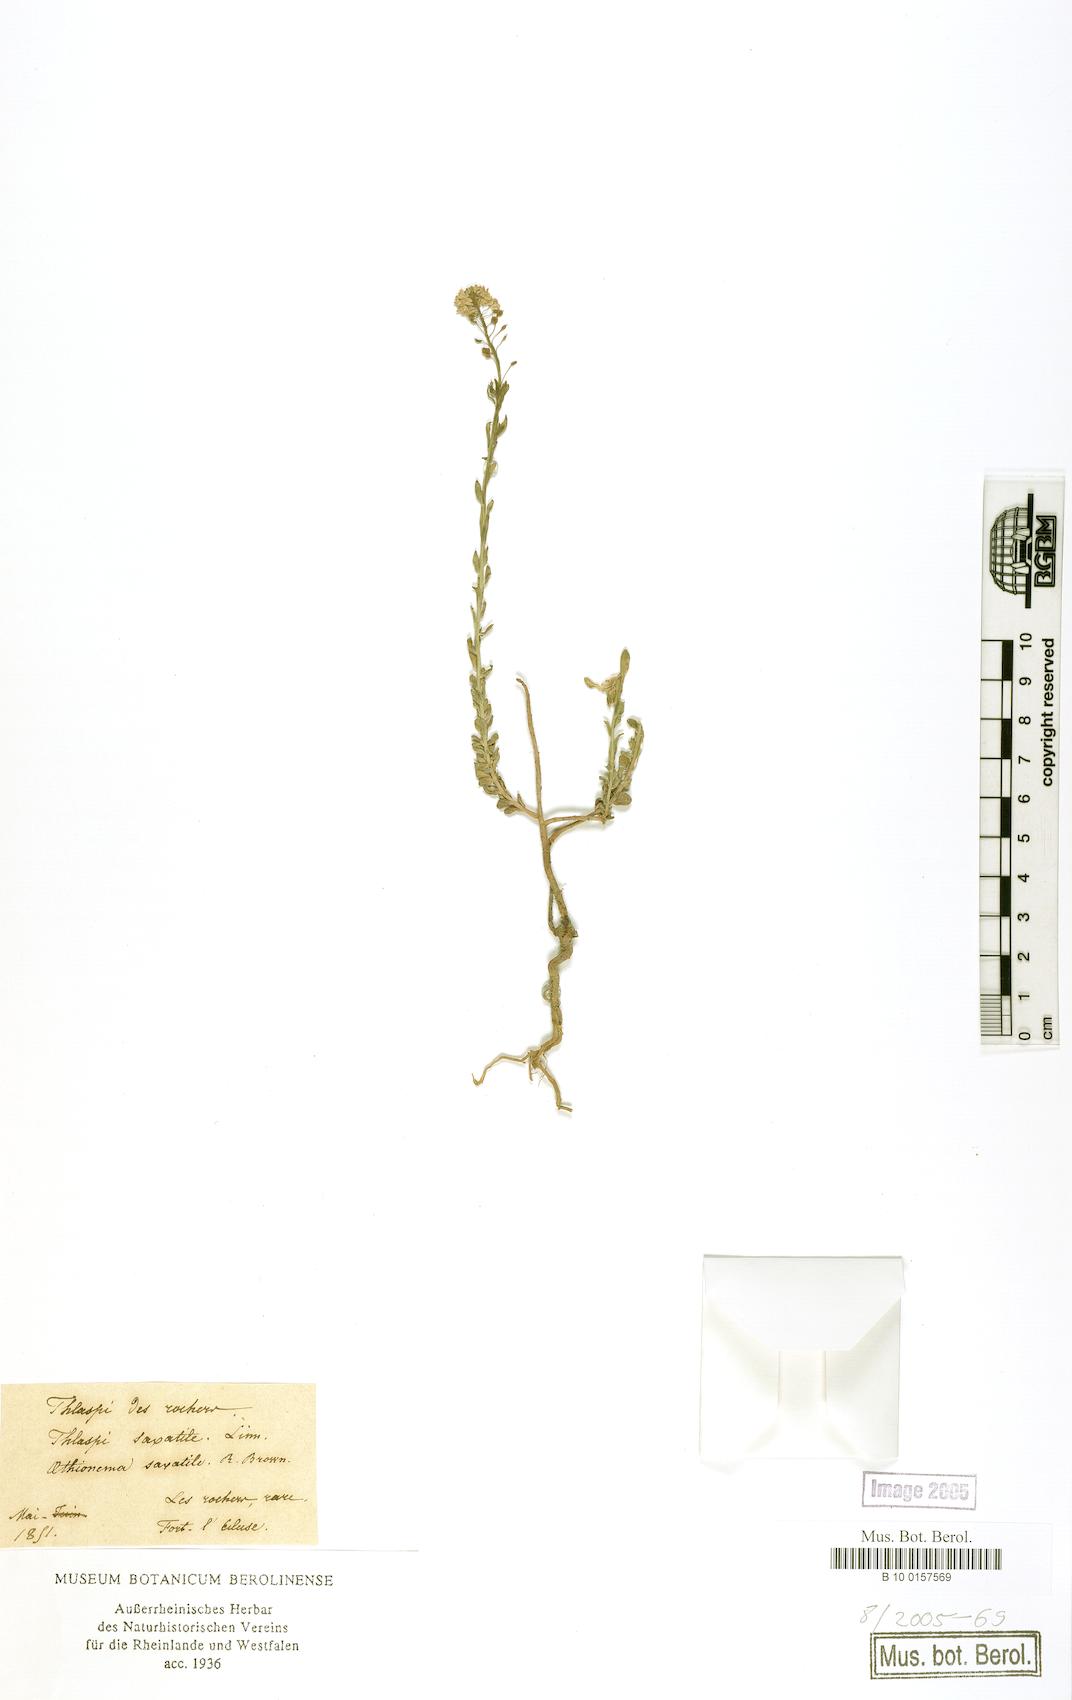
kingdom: Plantae
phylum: Tracheophyta
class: Magnoliopsida
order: Brassicales
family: Brassicaceae
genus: Aethionema
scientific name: Aethionema saxatile
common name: Burnt candytuft
